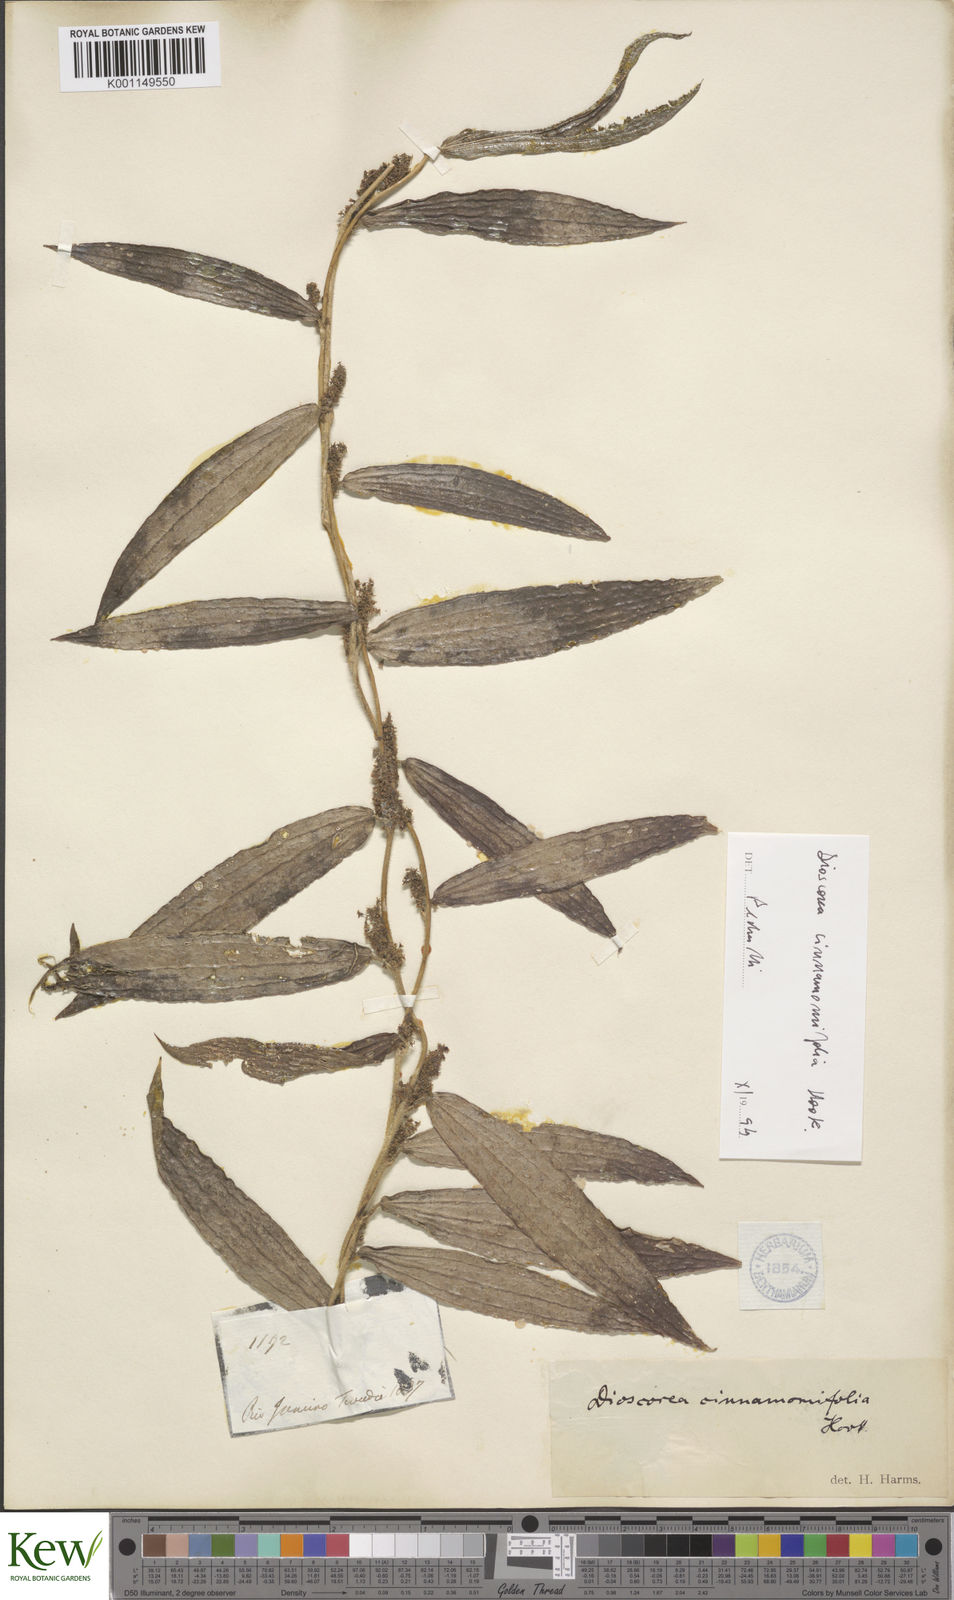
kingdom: Plantae
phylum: Tracheophyta
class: Liliopsida
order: Dioscoreales
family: Dioscoreaceae
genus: Dioscorea
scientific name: Dioscorea cinnamomifolia
